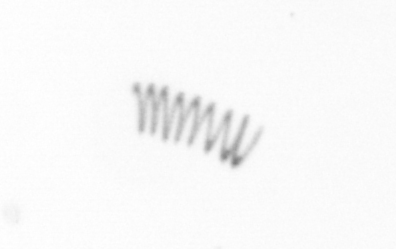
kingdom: Chromista
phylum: Ochrophyta
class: Bacillariophyceae
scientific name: Bacillariophyceae
